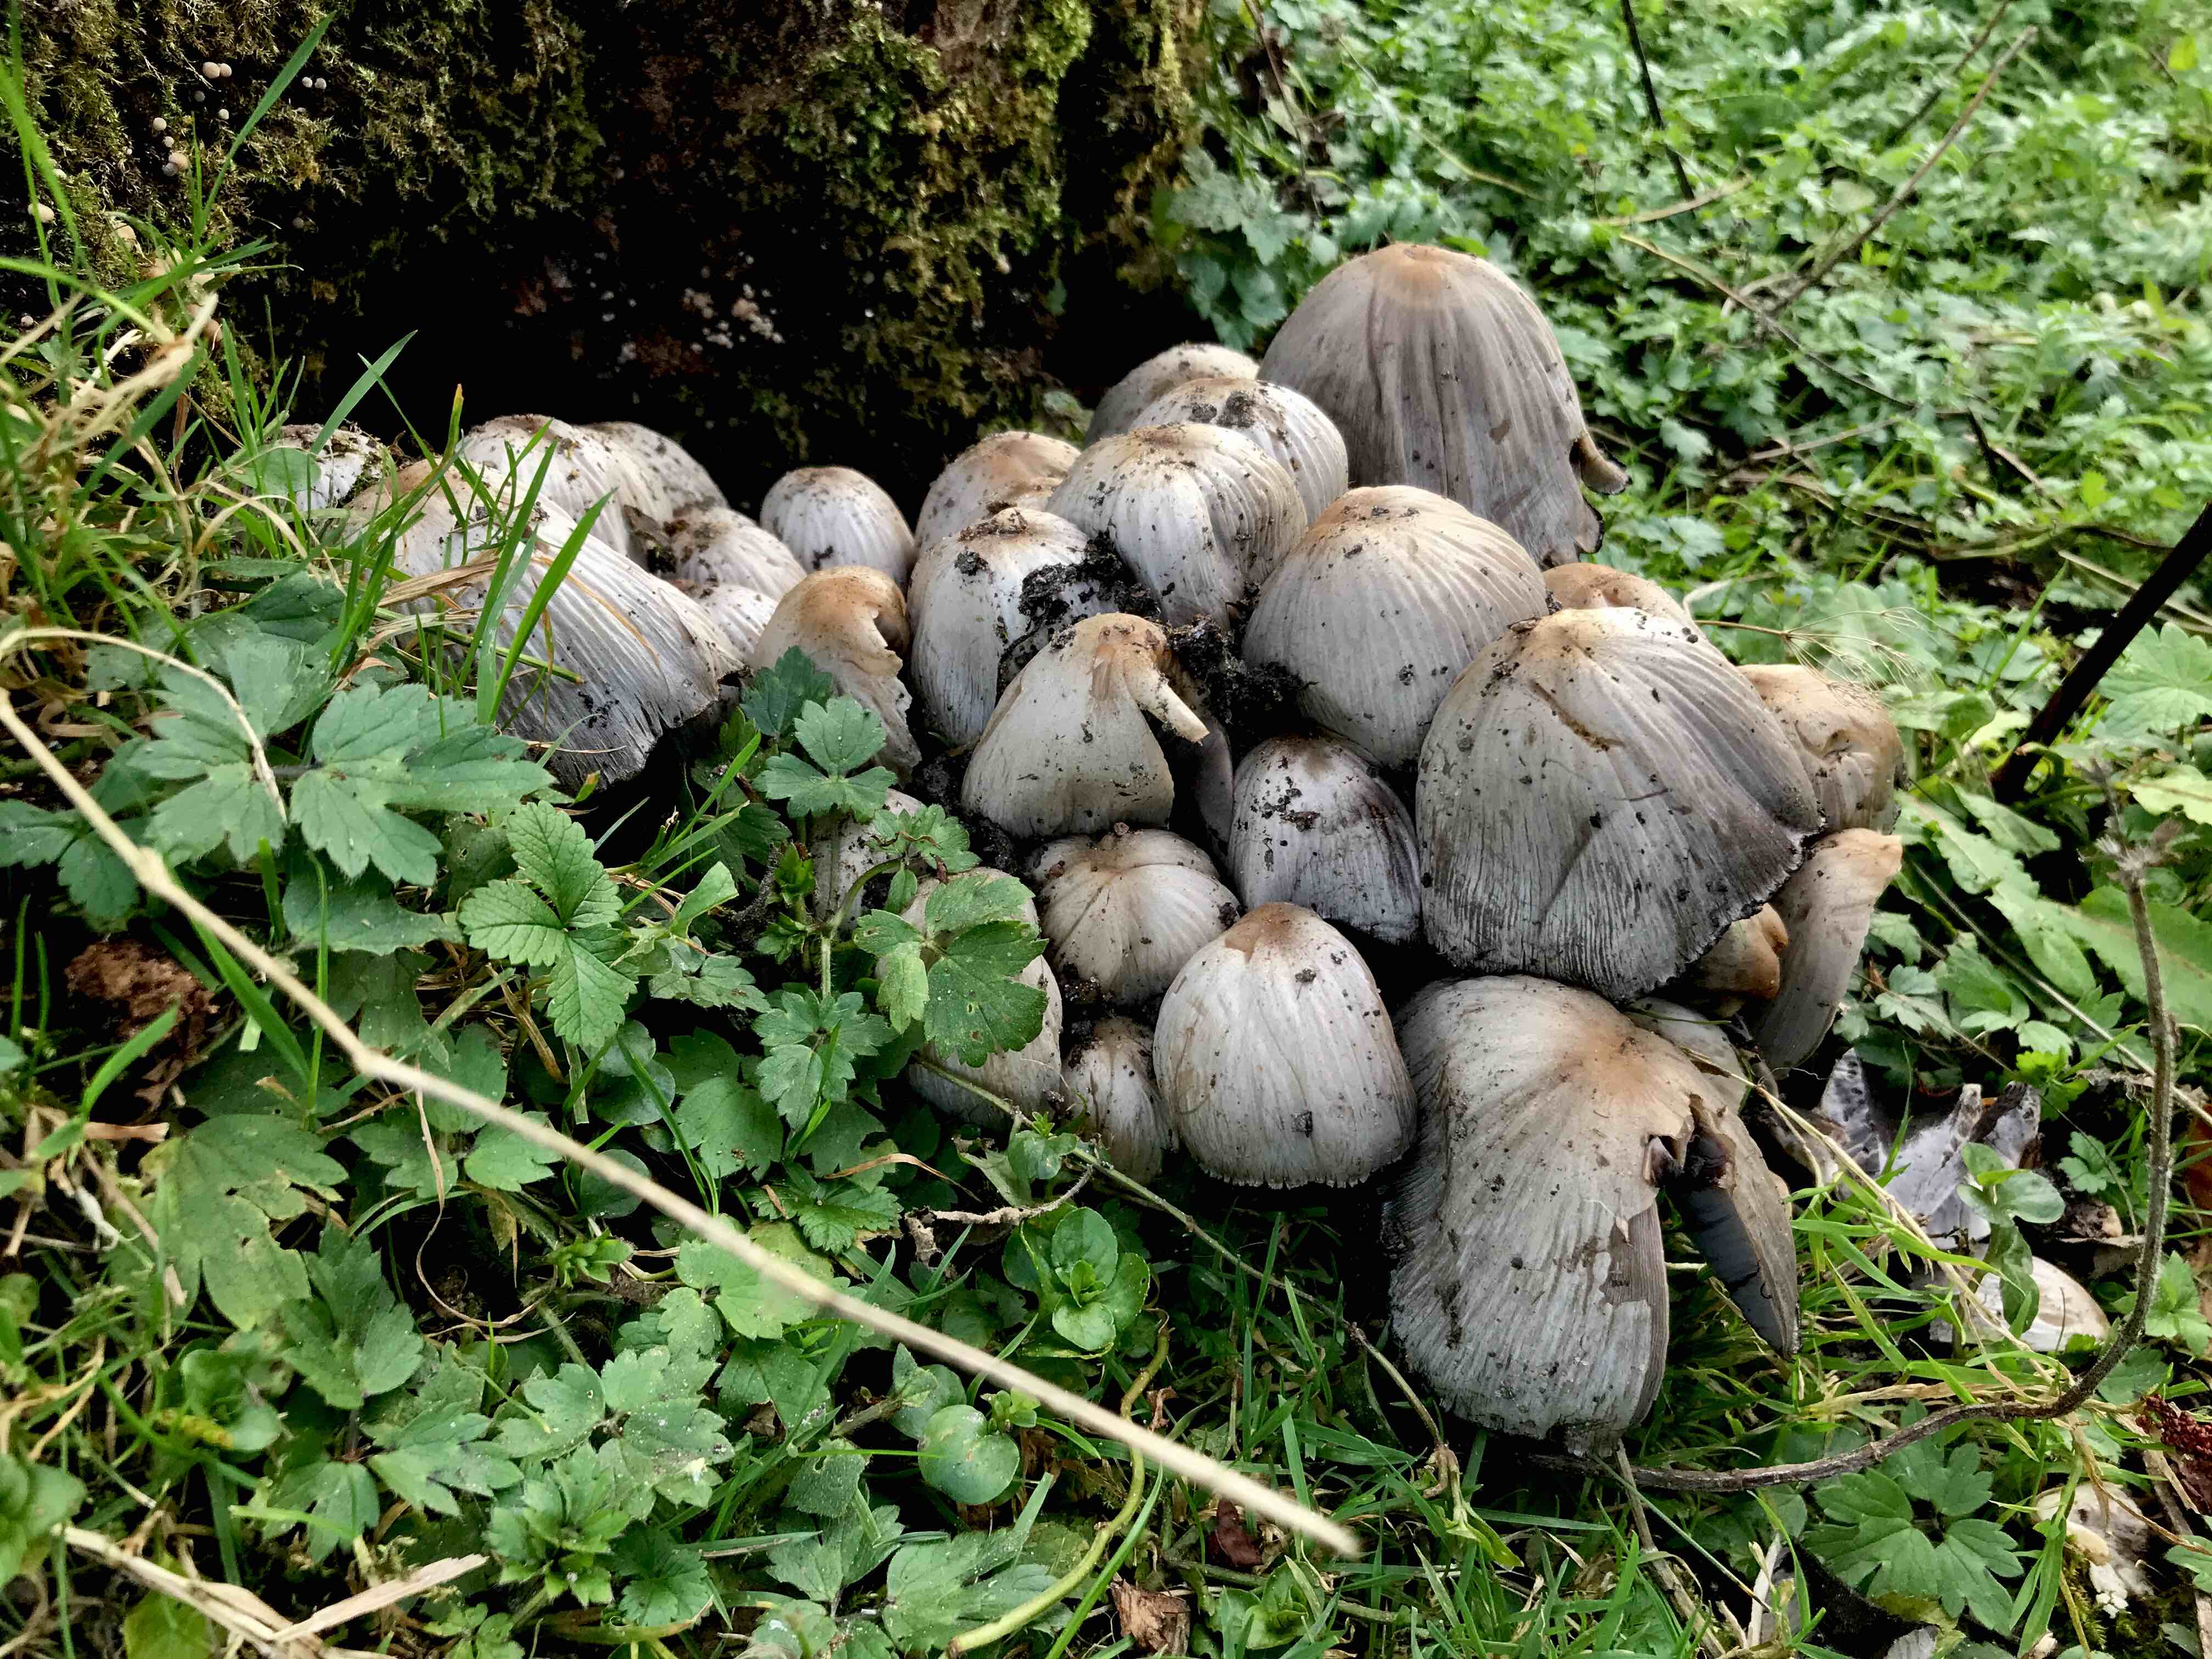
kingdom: Fungi
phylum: Basidiomycota
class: Agaricomycetes
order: Agaricales
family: Psathyrellaceae
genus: Coprinopsis
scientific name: Coprinopsis atramentaria
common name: almindelig blækhat
